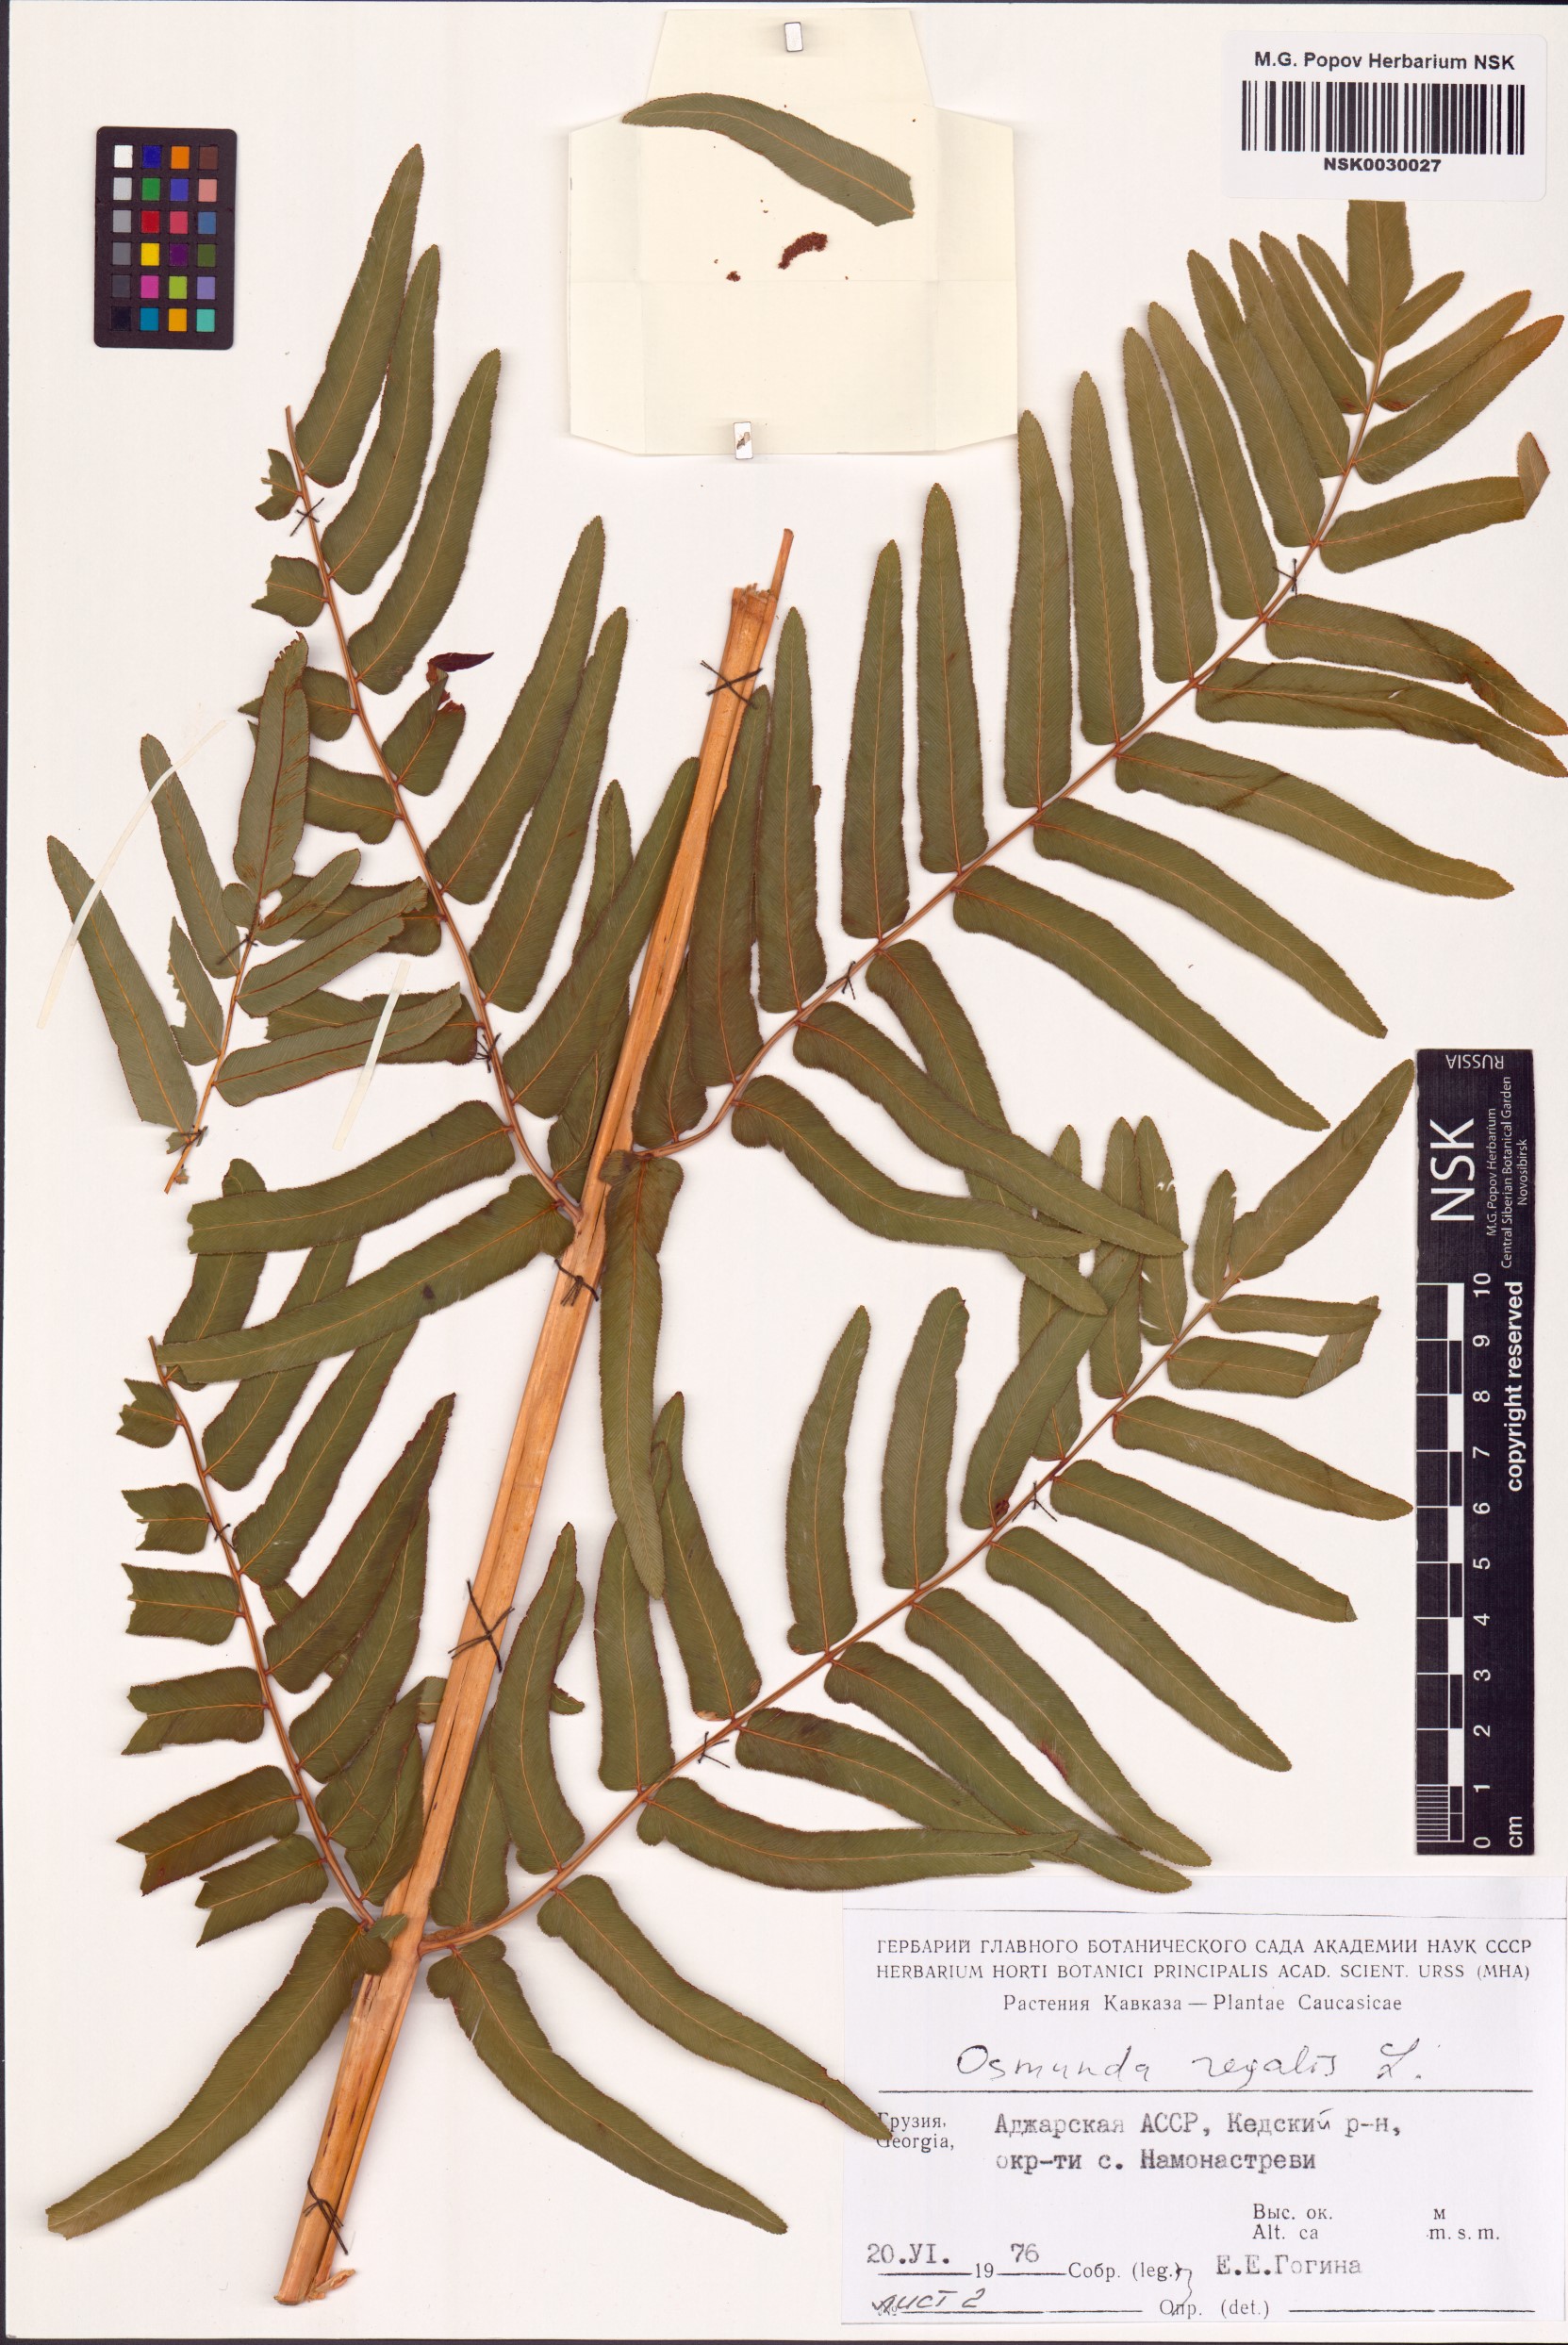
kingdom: Plantae
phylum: Tracheophyta
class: Polypodiopsida
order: Osmundales
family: Osmundaceae
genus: Osmunda
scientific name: Osmunda regalis
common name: Royal fern
